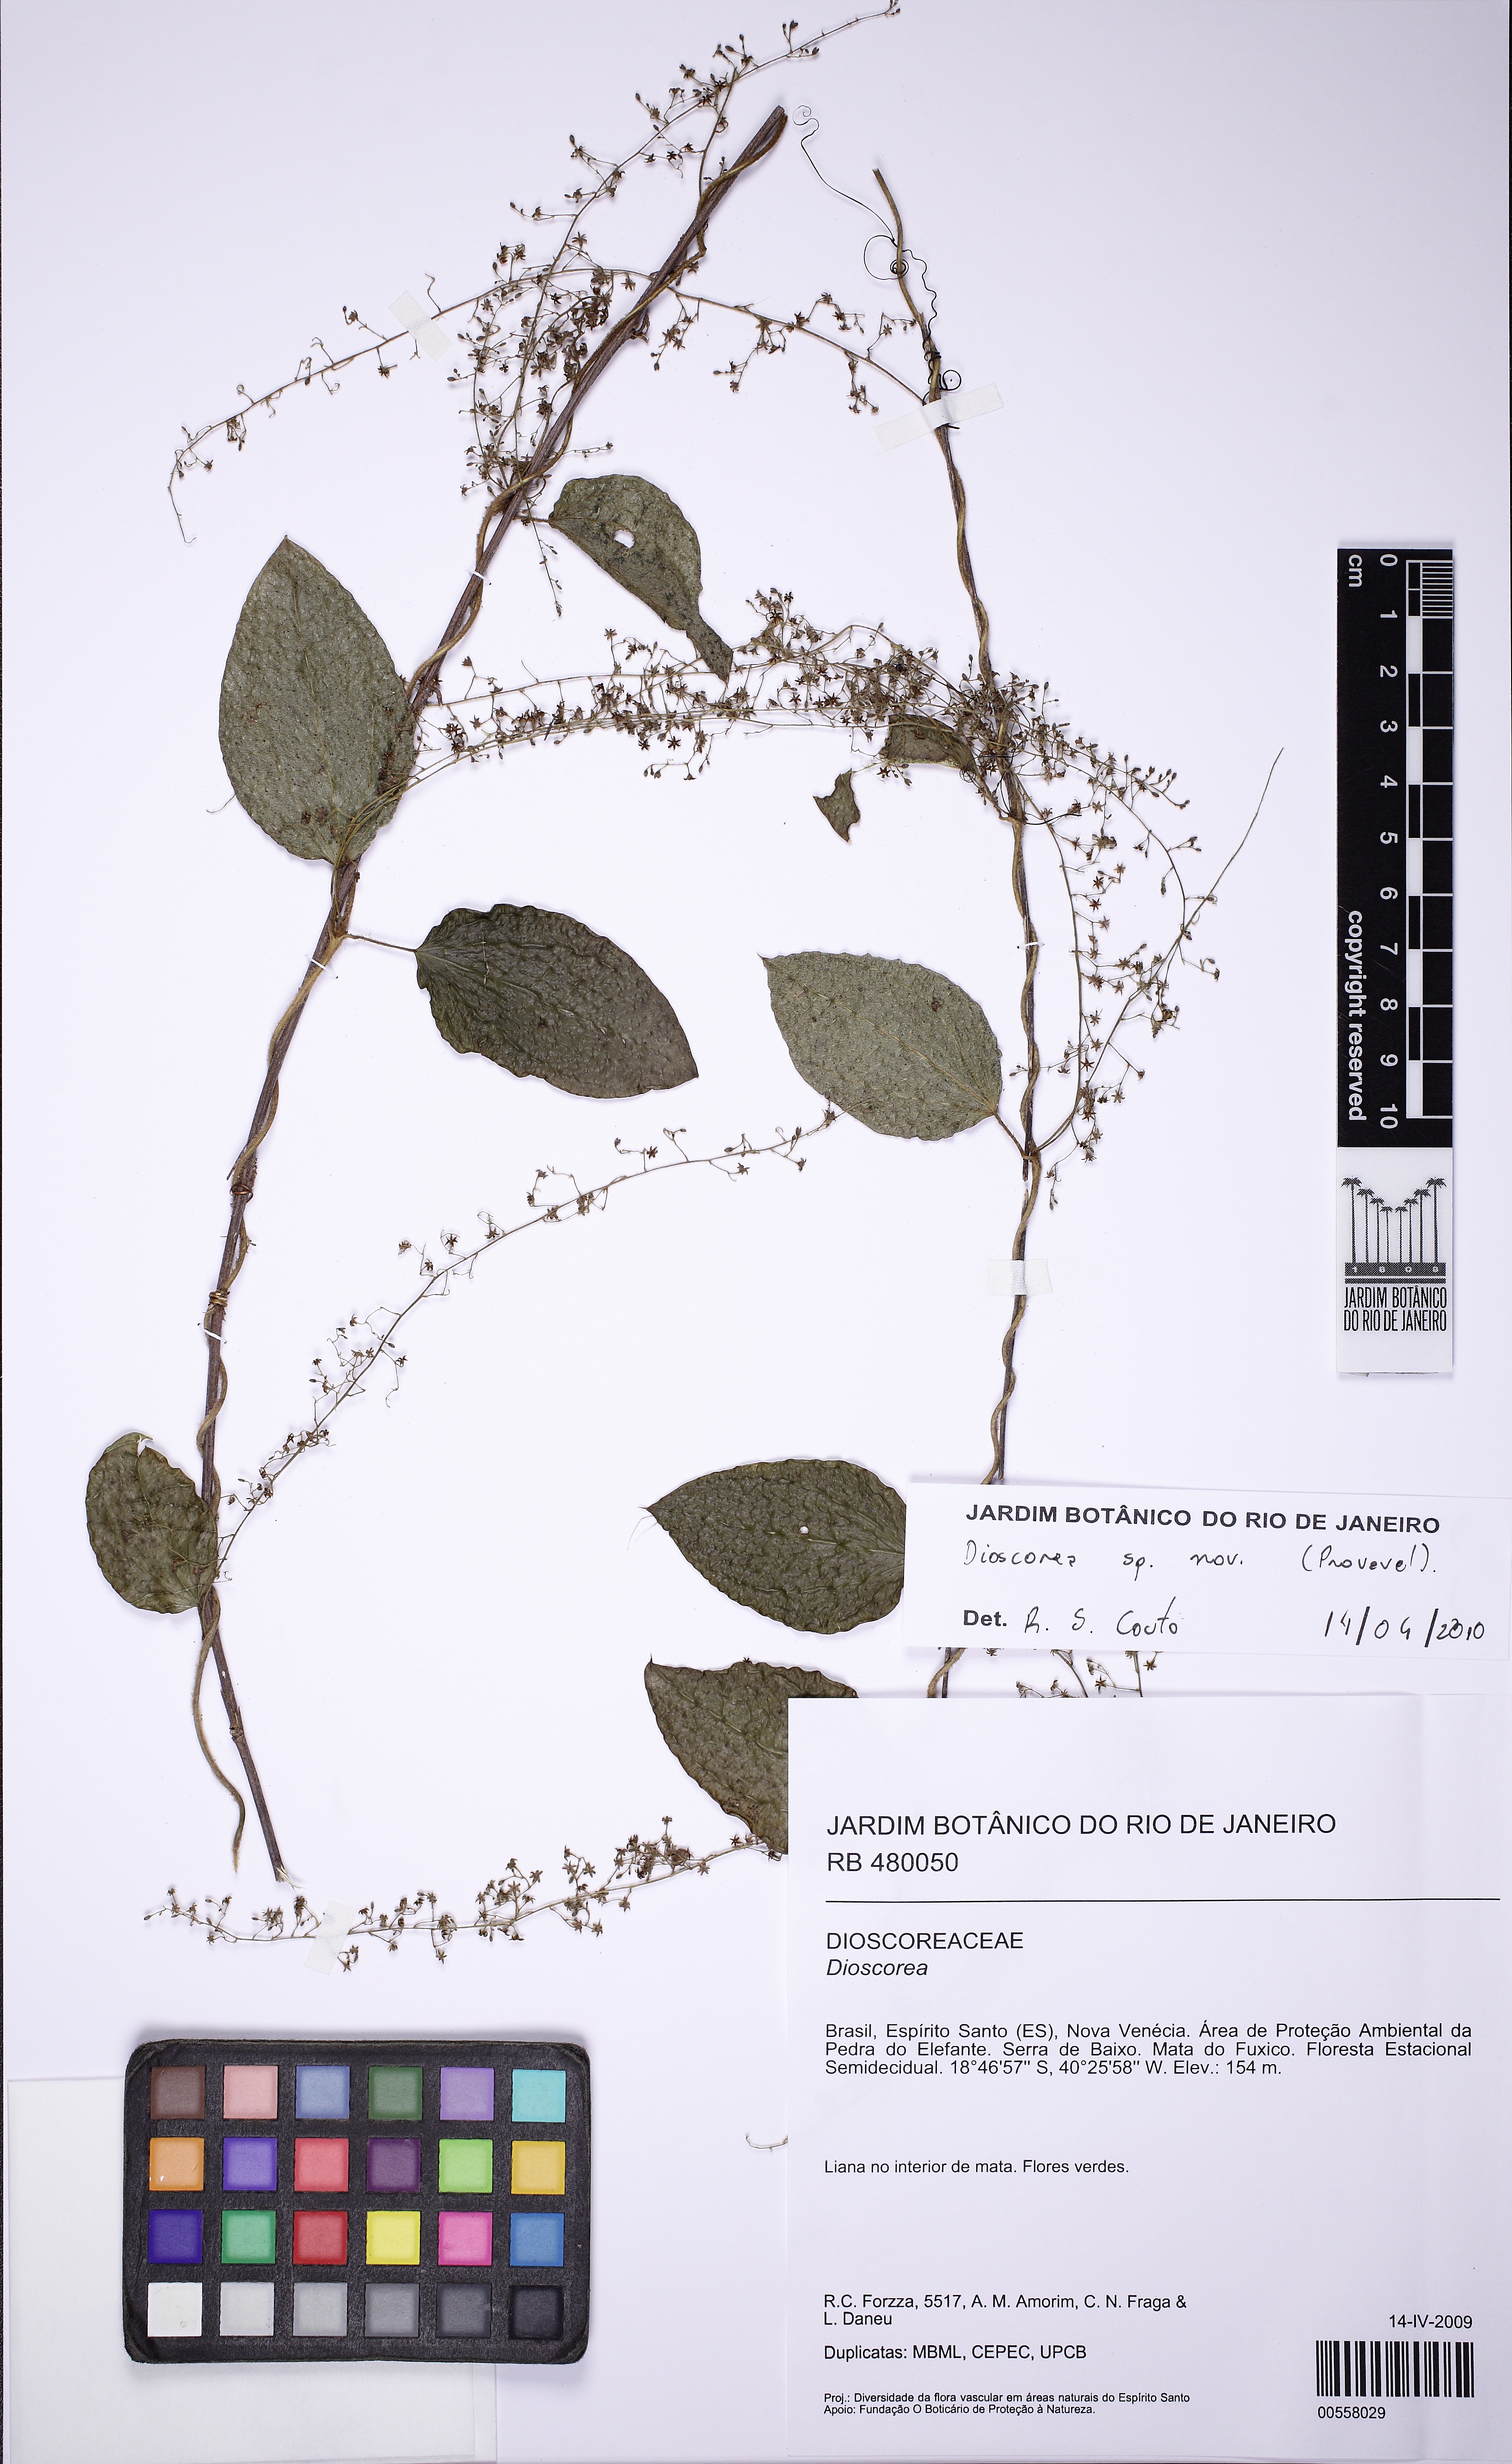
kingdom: Plantae
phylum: Tracheophyta
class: Liliopsida
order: Dioscoreales
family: Dioscoreaceae
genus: Dioscorea
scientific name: Dioscorea
